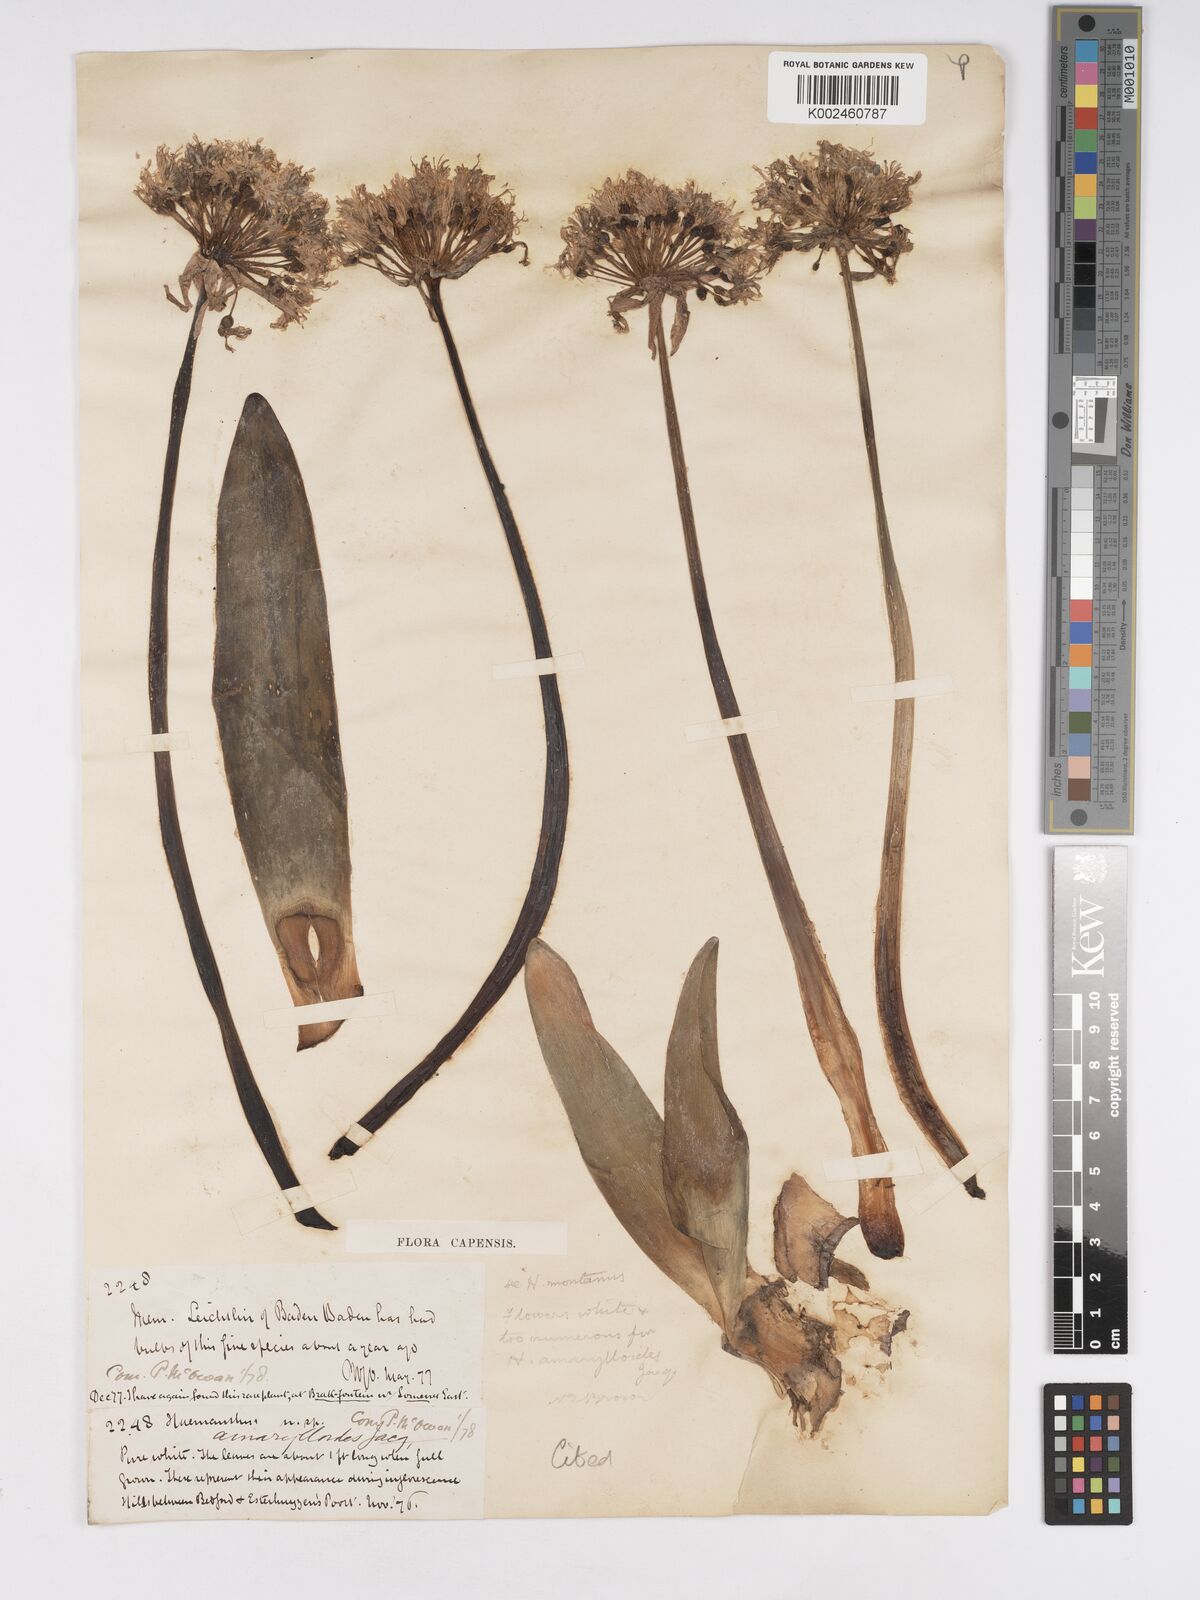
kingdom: Plantae
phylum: Tracheophyta
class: Liliopsida
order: Asparagales
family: Amaryllidaceae
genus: Haemanthus
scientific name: Haemanthus montanus
